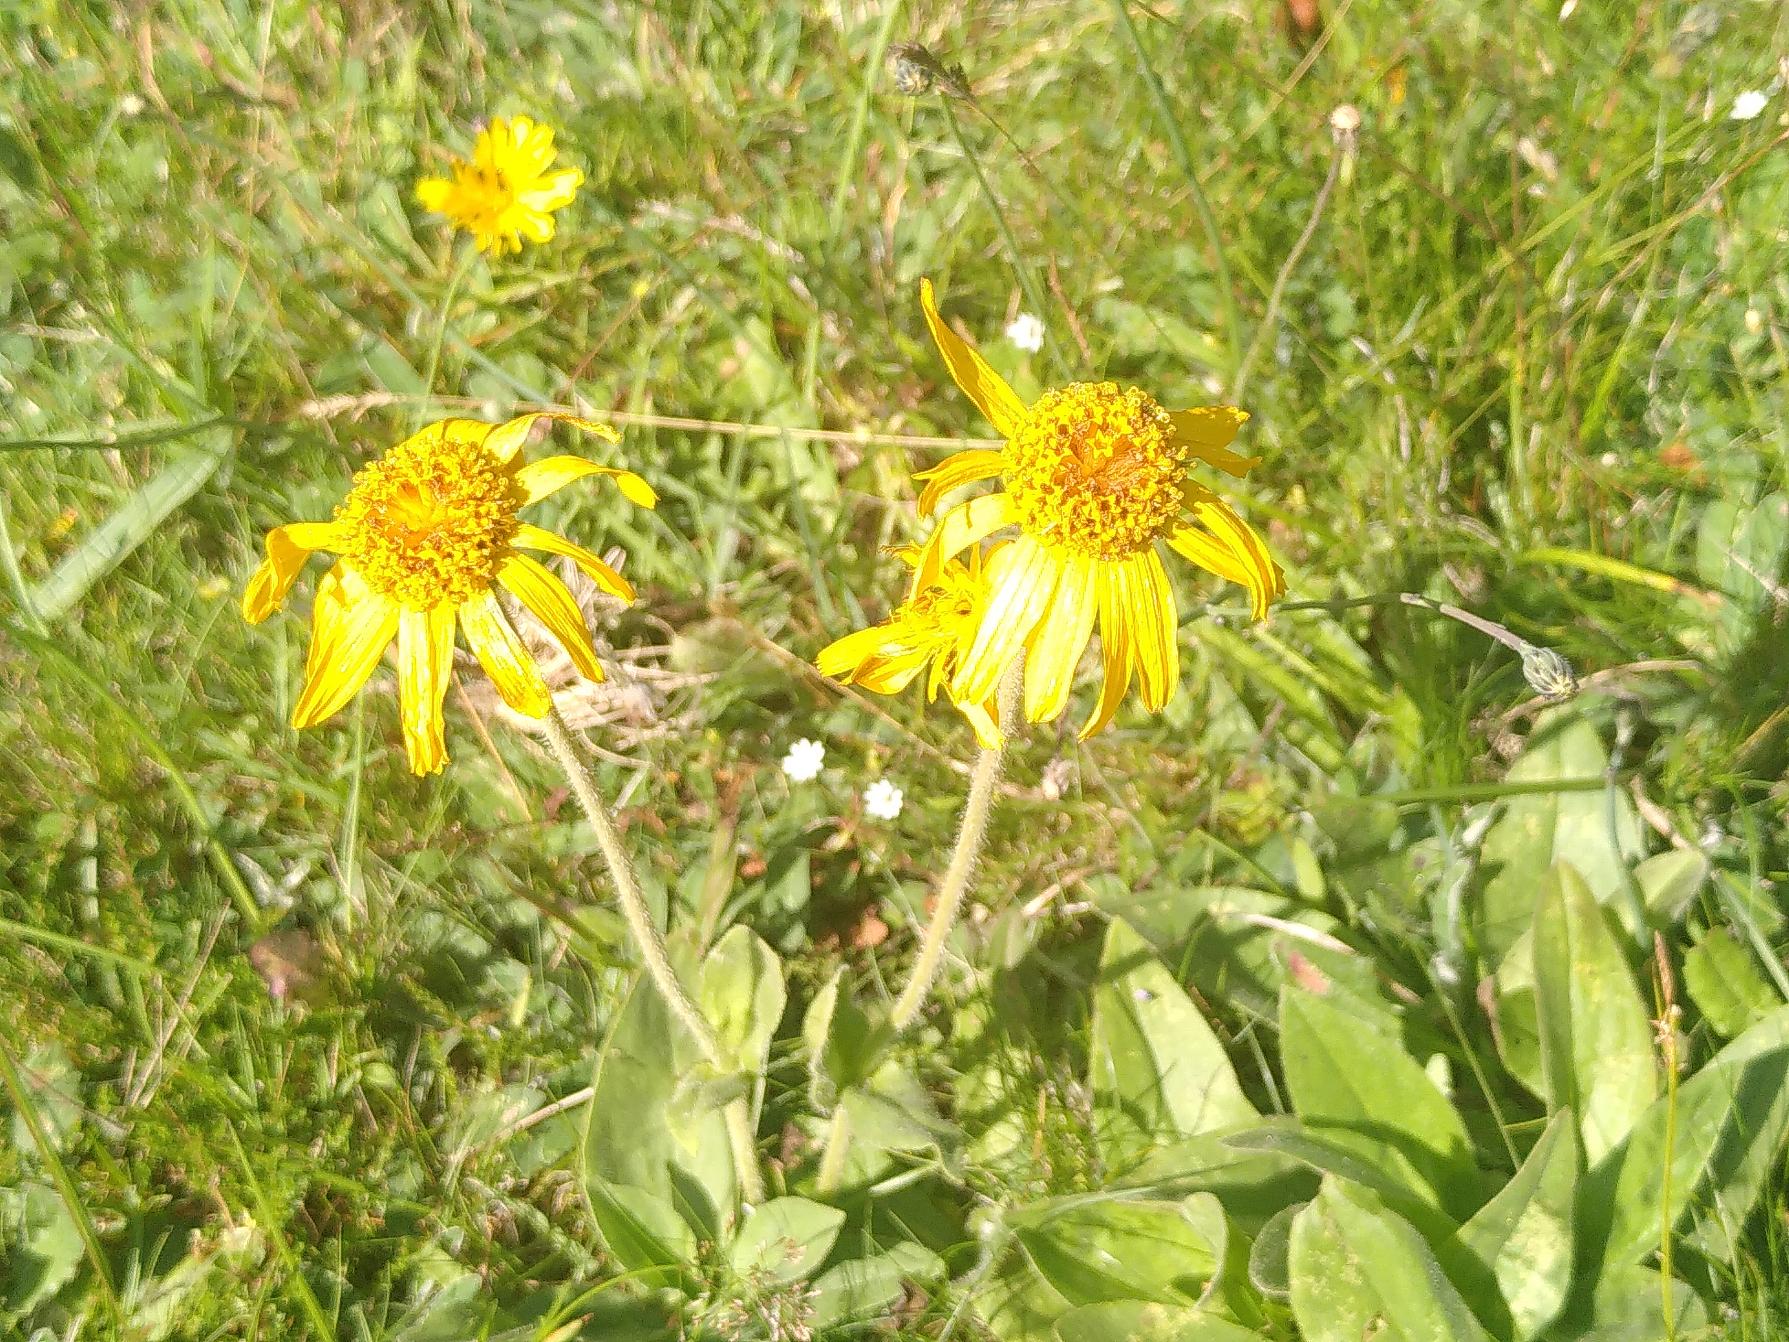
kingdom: Plantae
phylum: Tracheophyta
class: Magnoliopsida
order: Asterales
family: Asteraceae
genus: Arnica
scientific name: Arnica montana
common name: Guldblomme
